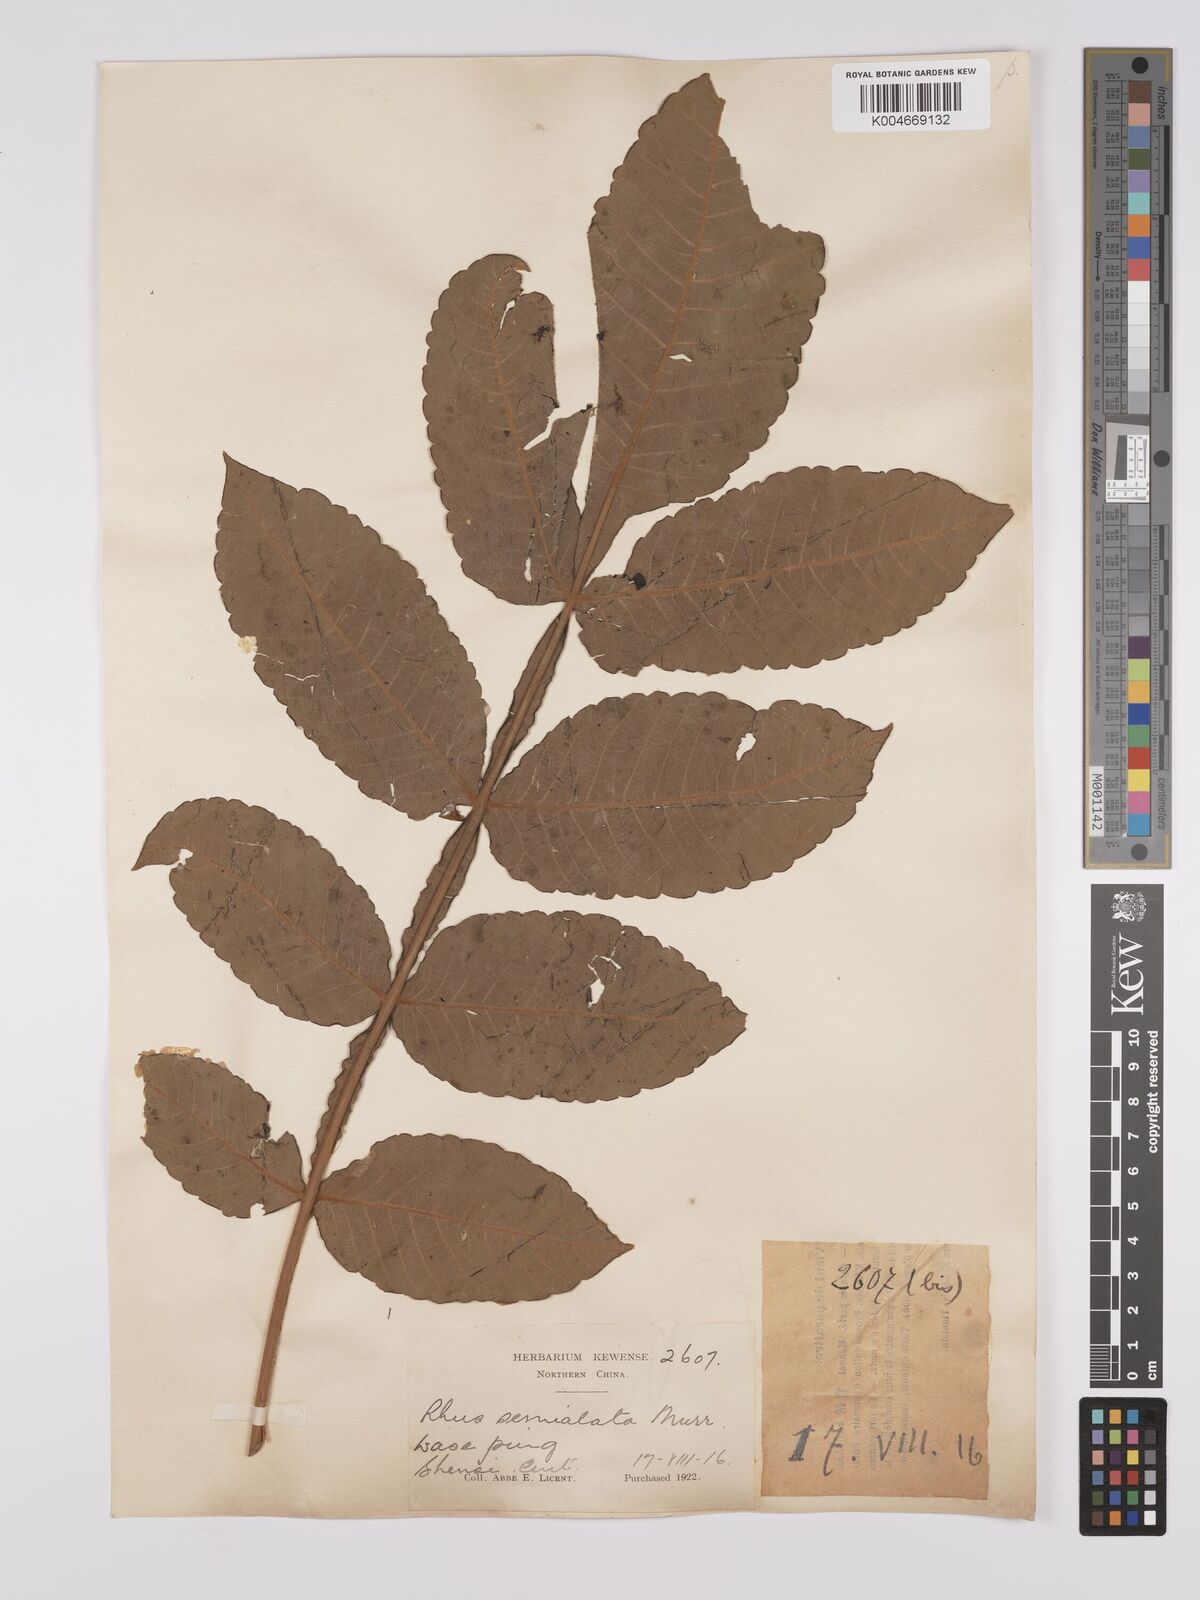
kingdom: Plantae
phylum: Tracheophyta
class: Magnoliopsida
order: Sapindales
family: Anacardiaceae
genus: Rhus
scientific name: Rhus chinensis
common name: Chinese gall
